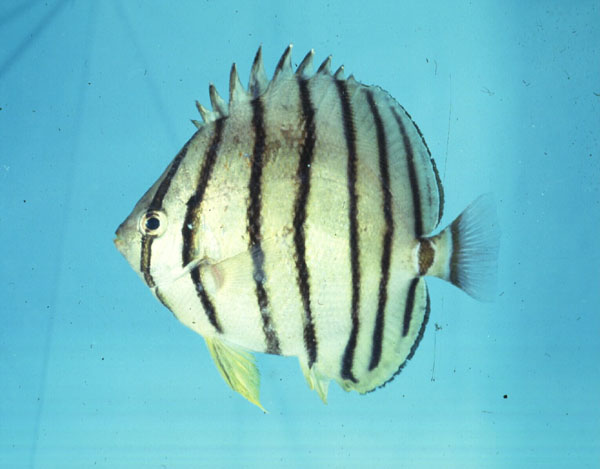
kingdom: Animalia
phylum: Chordata
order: Perciformes
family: Chaetodontidae
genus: Chaetodon
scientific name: Chaetodon octofasciatus
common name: Eightband butterflyfish
